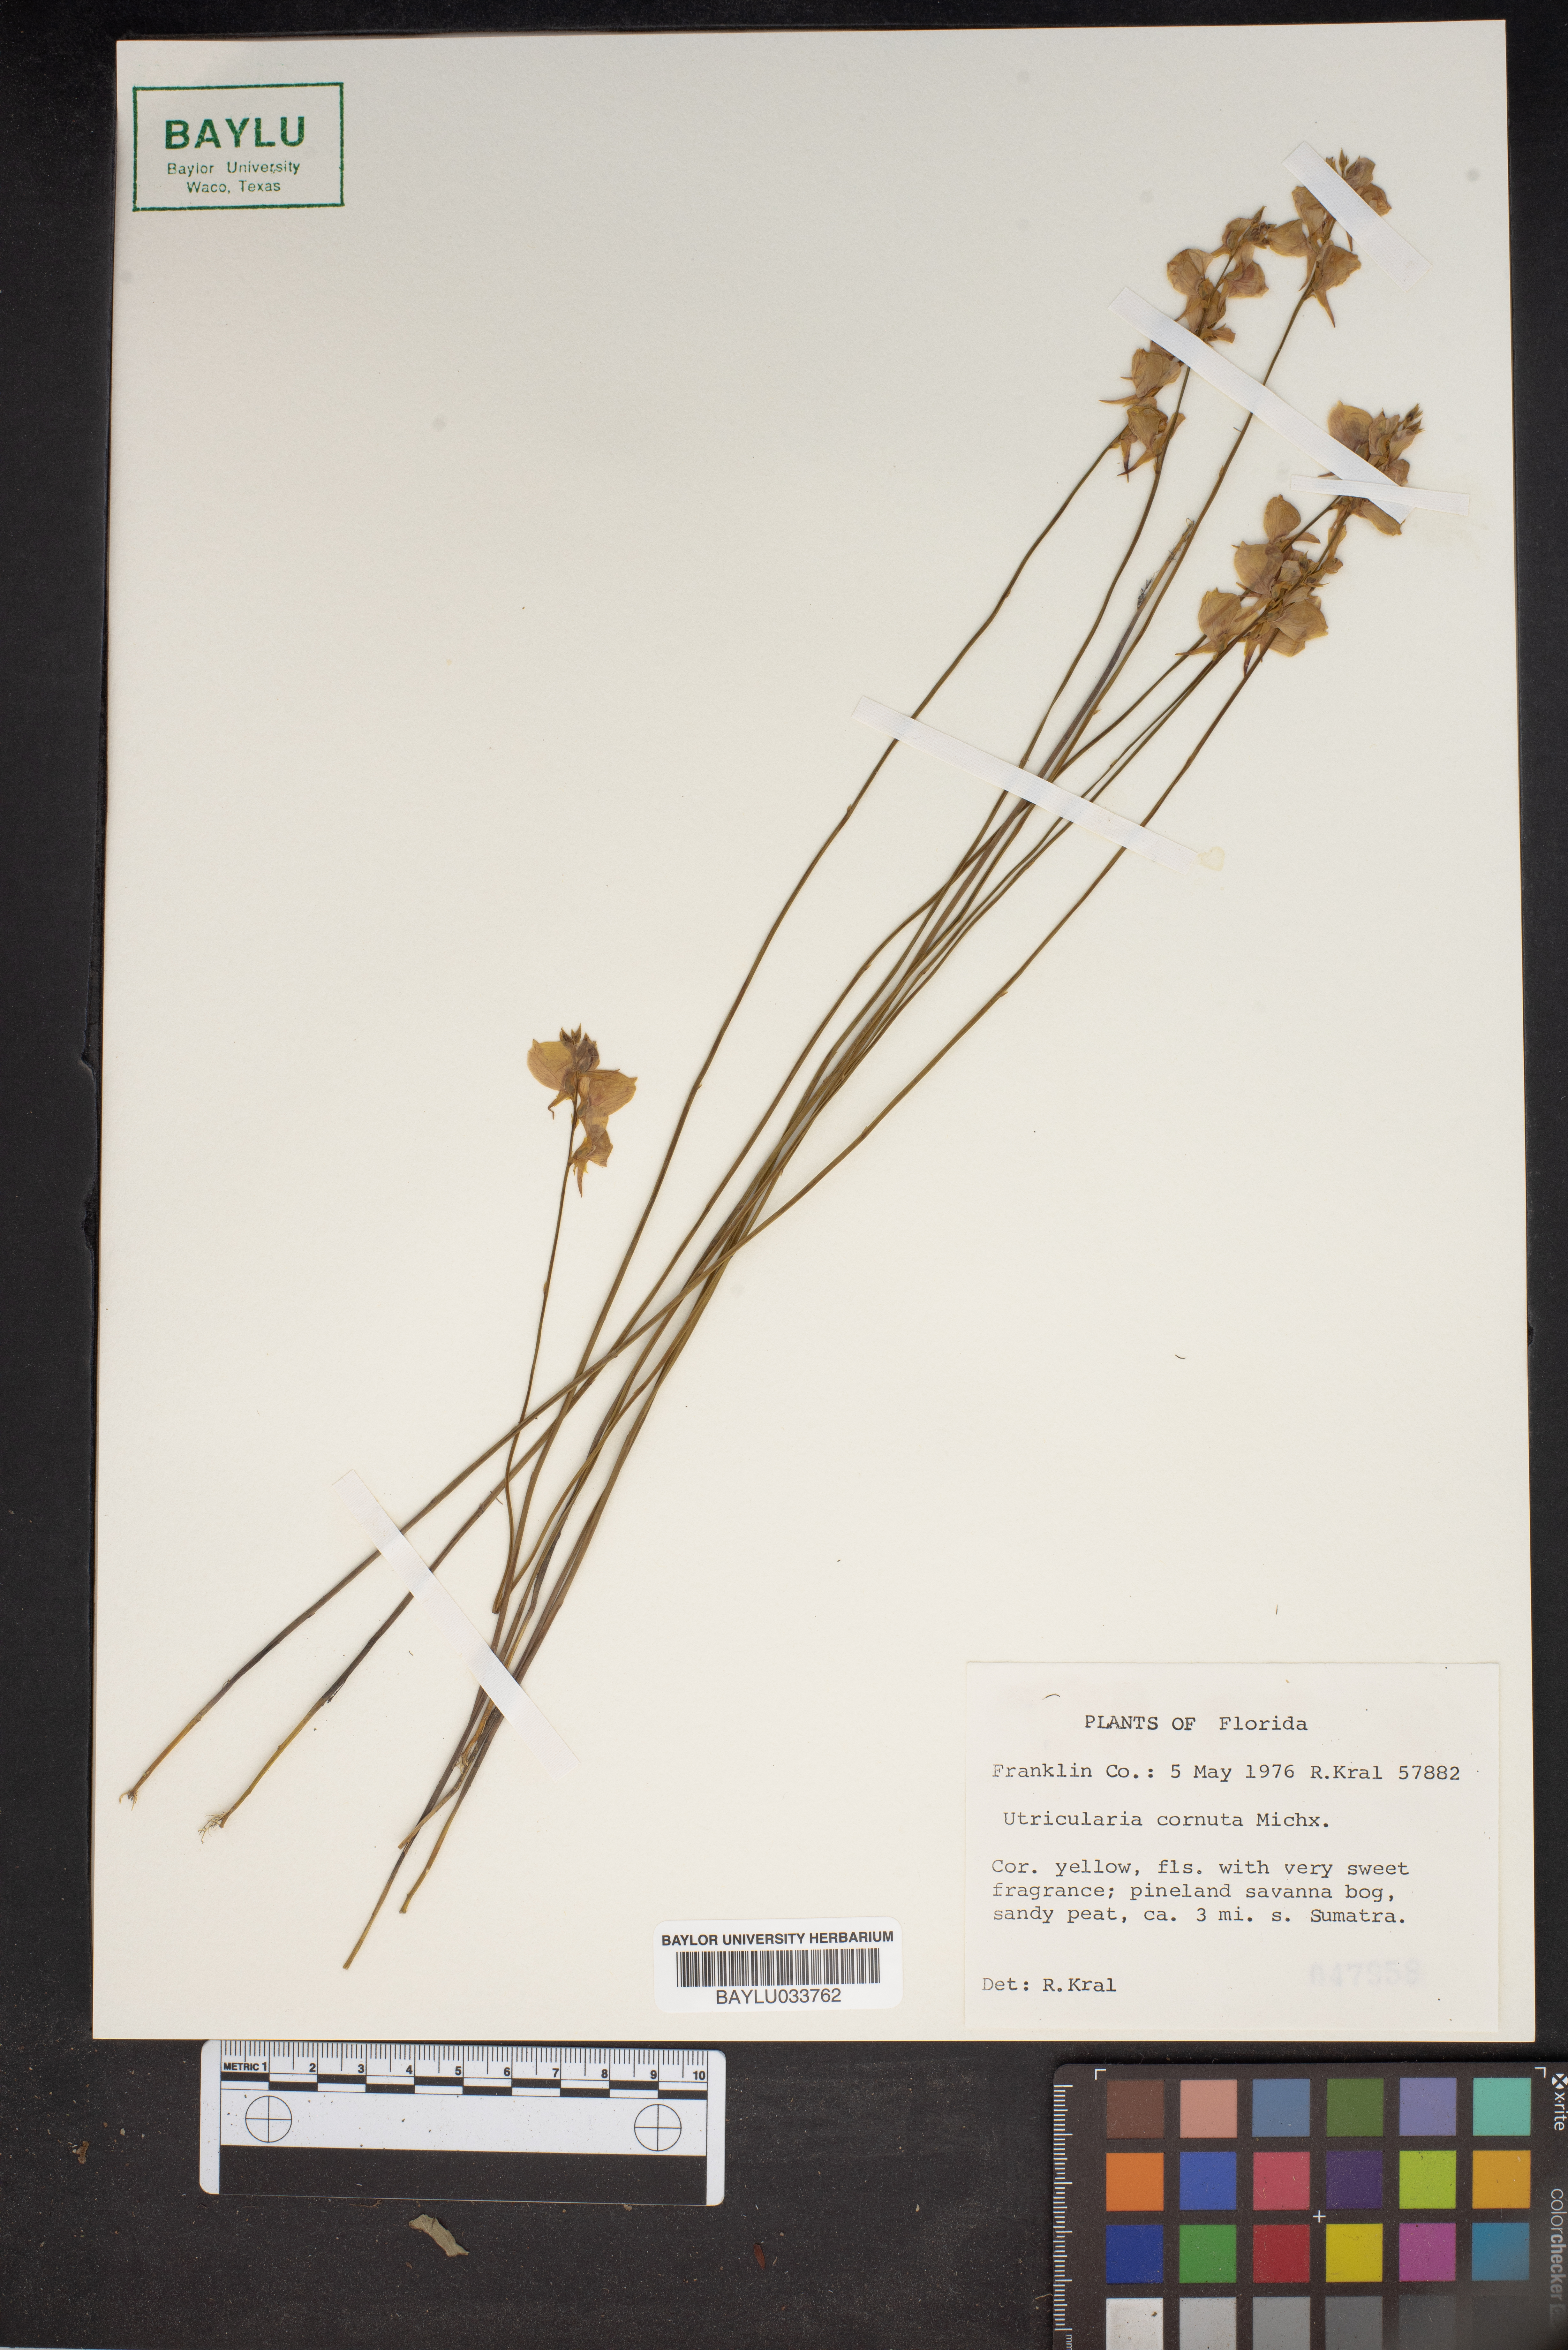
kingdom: Plantae
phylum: Tracheophyta
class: Magnoliopsida
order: Lamiales
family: Lentibulariaceae
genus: Utricularia
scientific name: Utricularia cornuta
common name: Horned bladderwort
